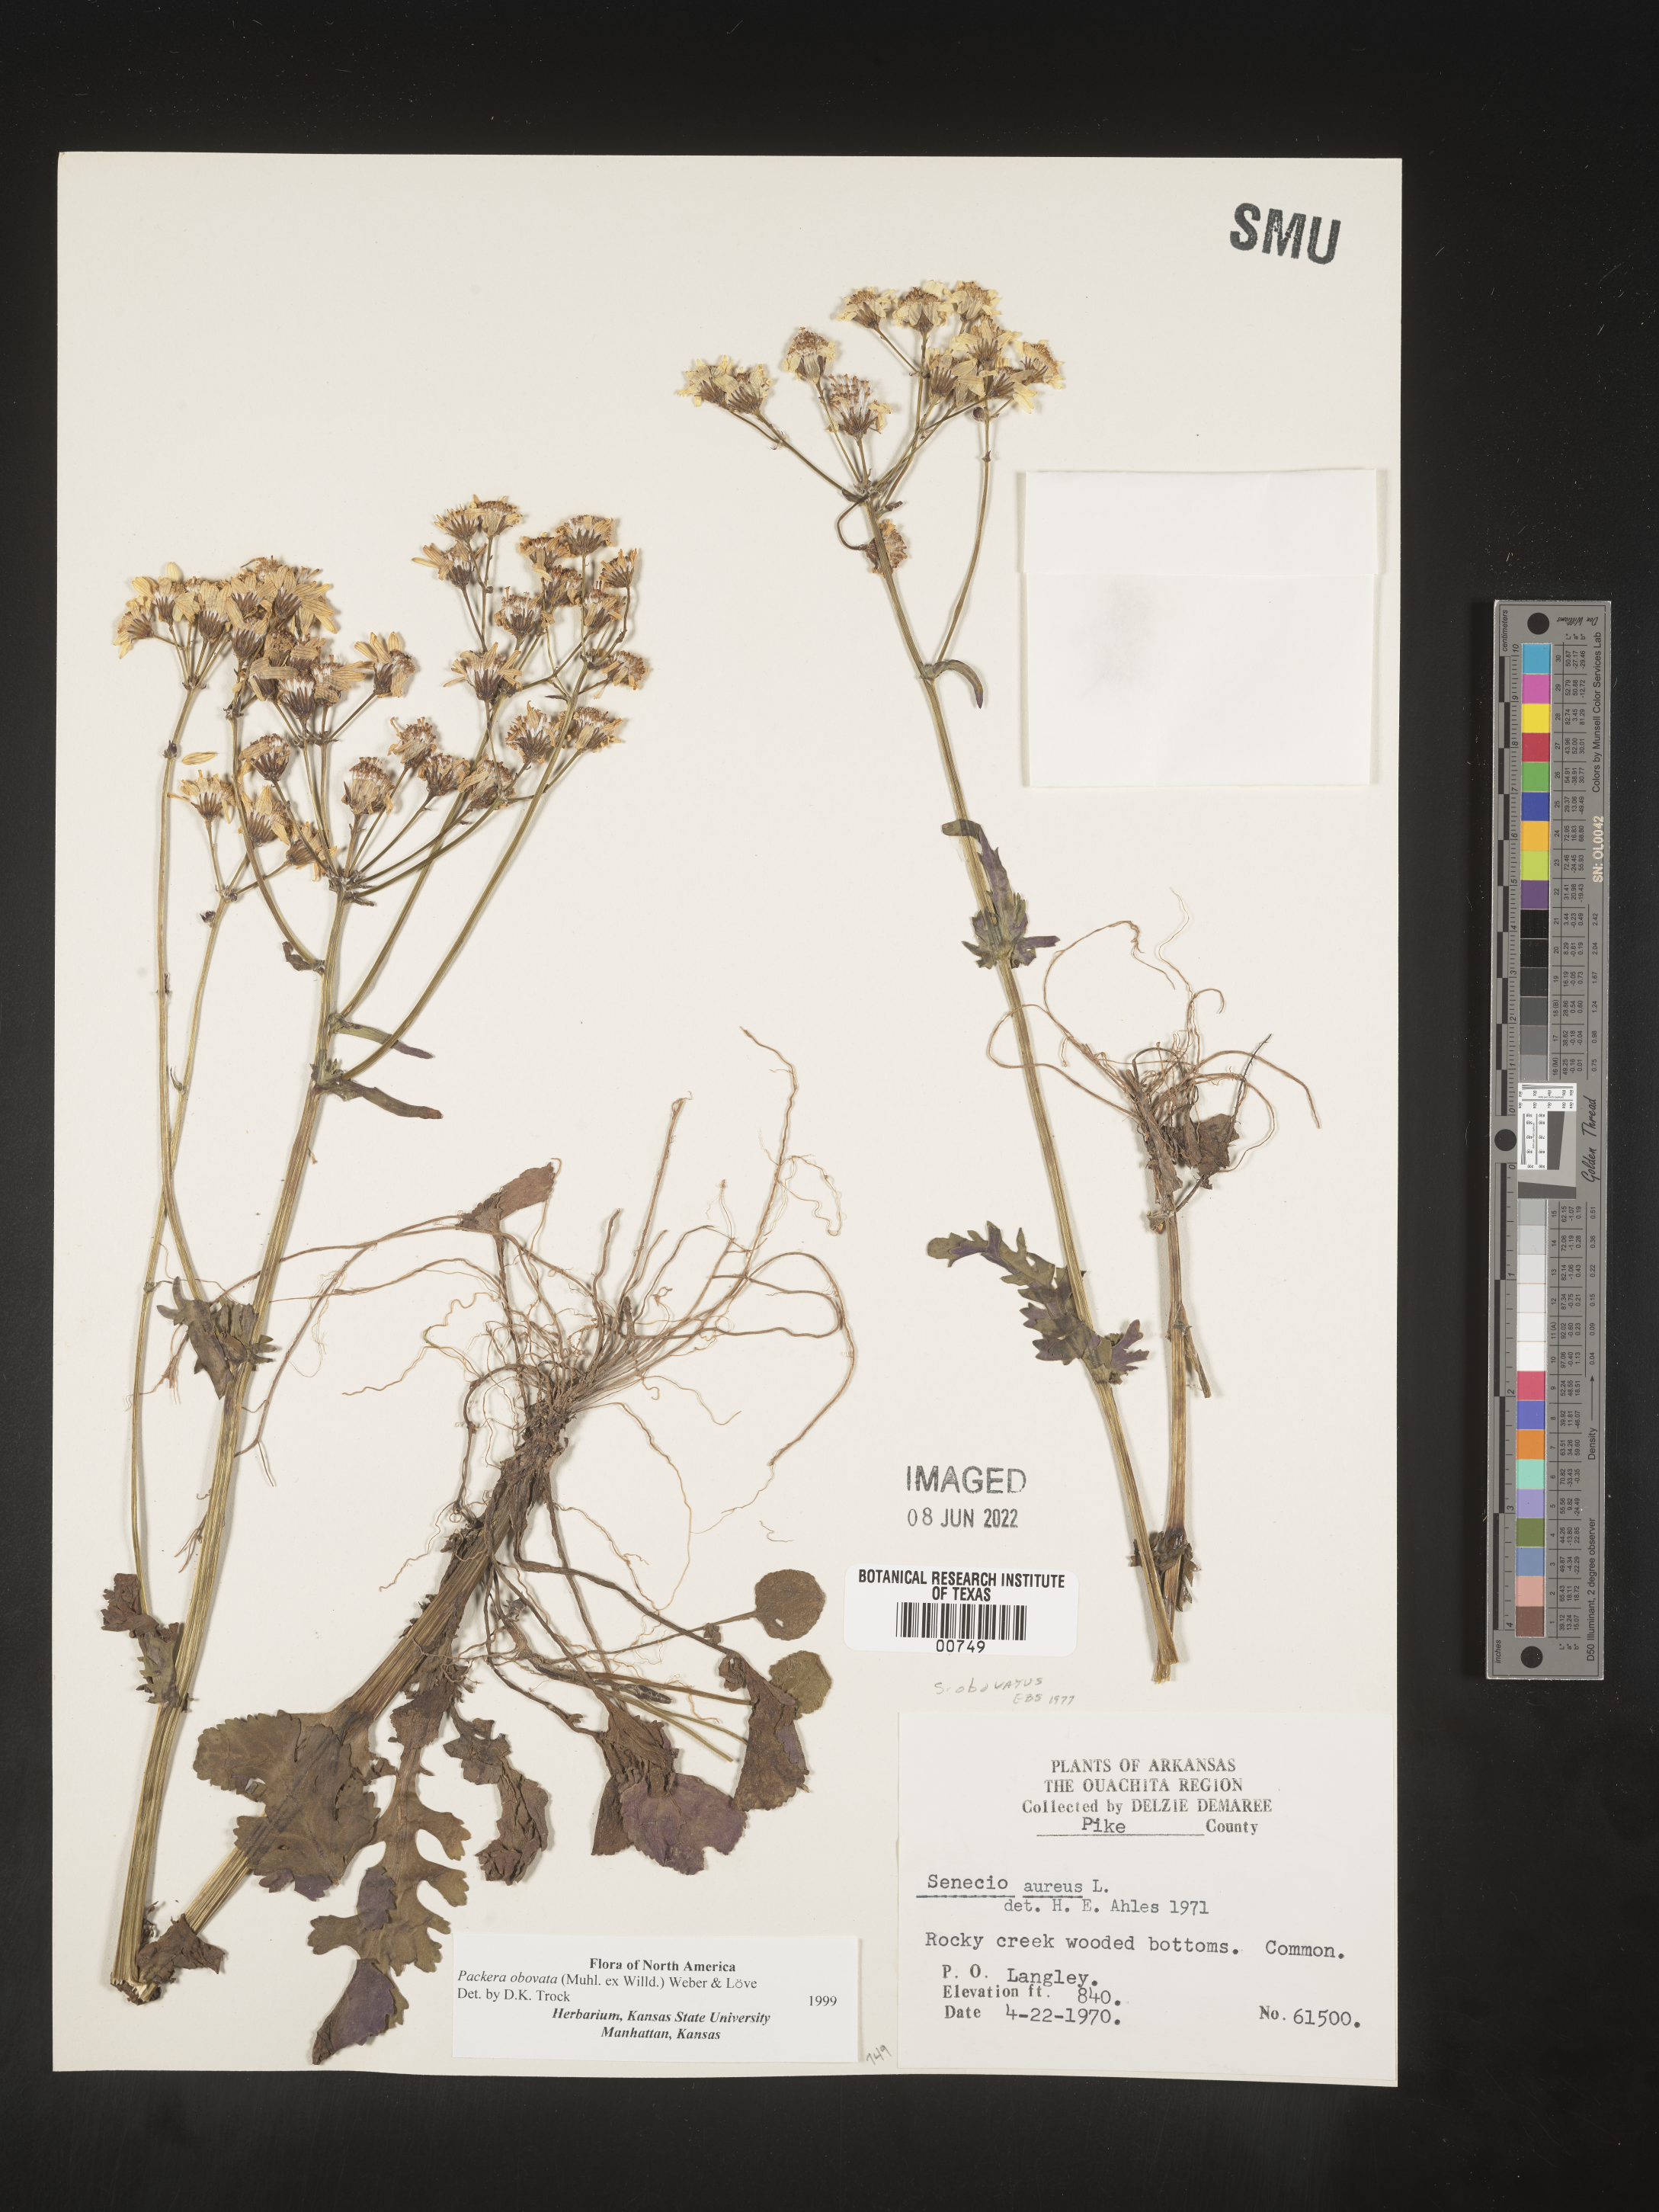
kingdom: Plantae
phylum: Tracheophyta
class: Magnoliopsida
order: Asterales
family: Asteraceae
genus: Packera
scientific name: Packera obovata
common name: Round-leaf ragwort
